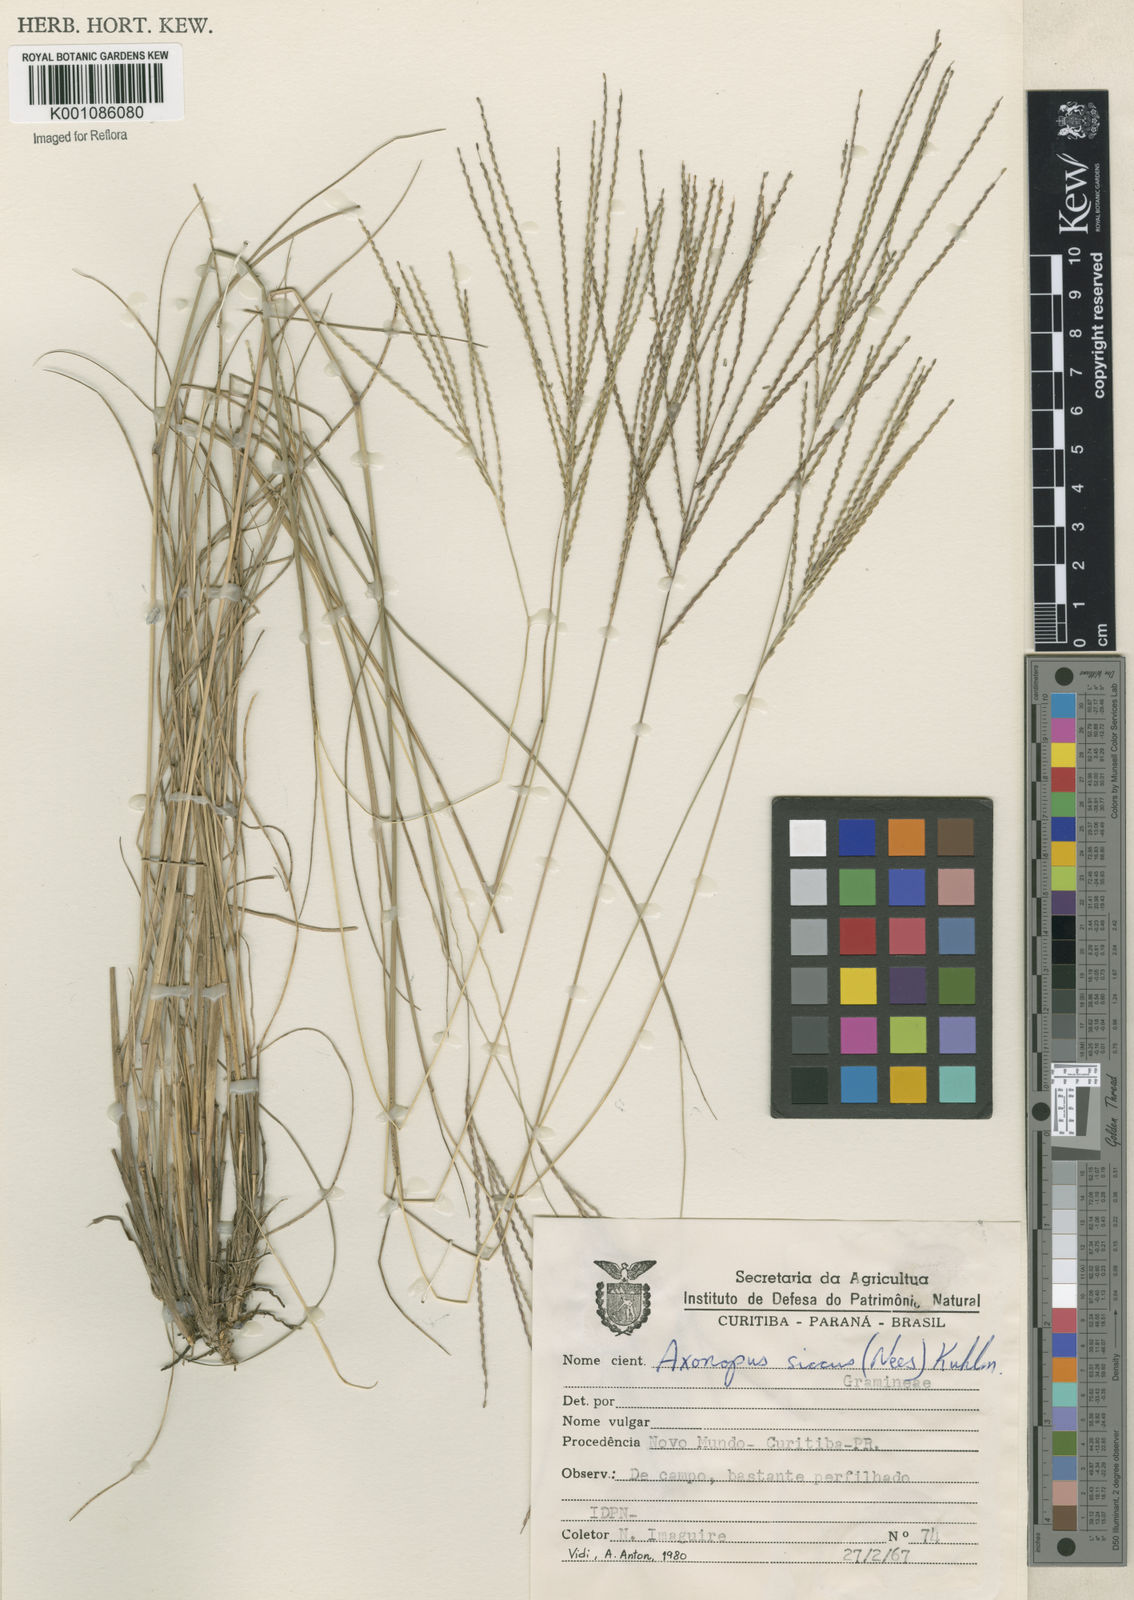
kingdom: Plantae
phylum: Tracheophyta
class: Liliopsida
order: Poales
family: Poaceae
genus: Axonopus
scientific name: Axonopus siccus
